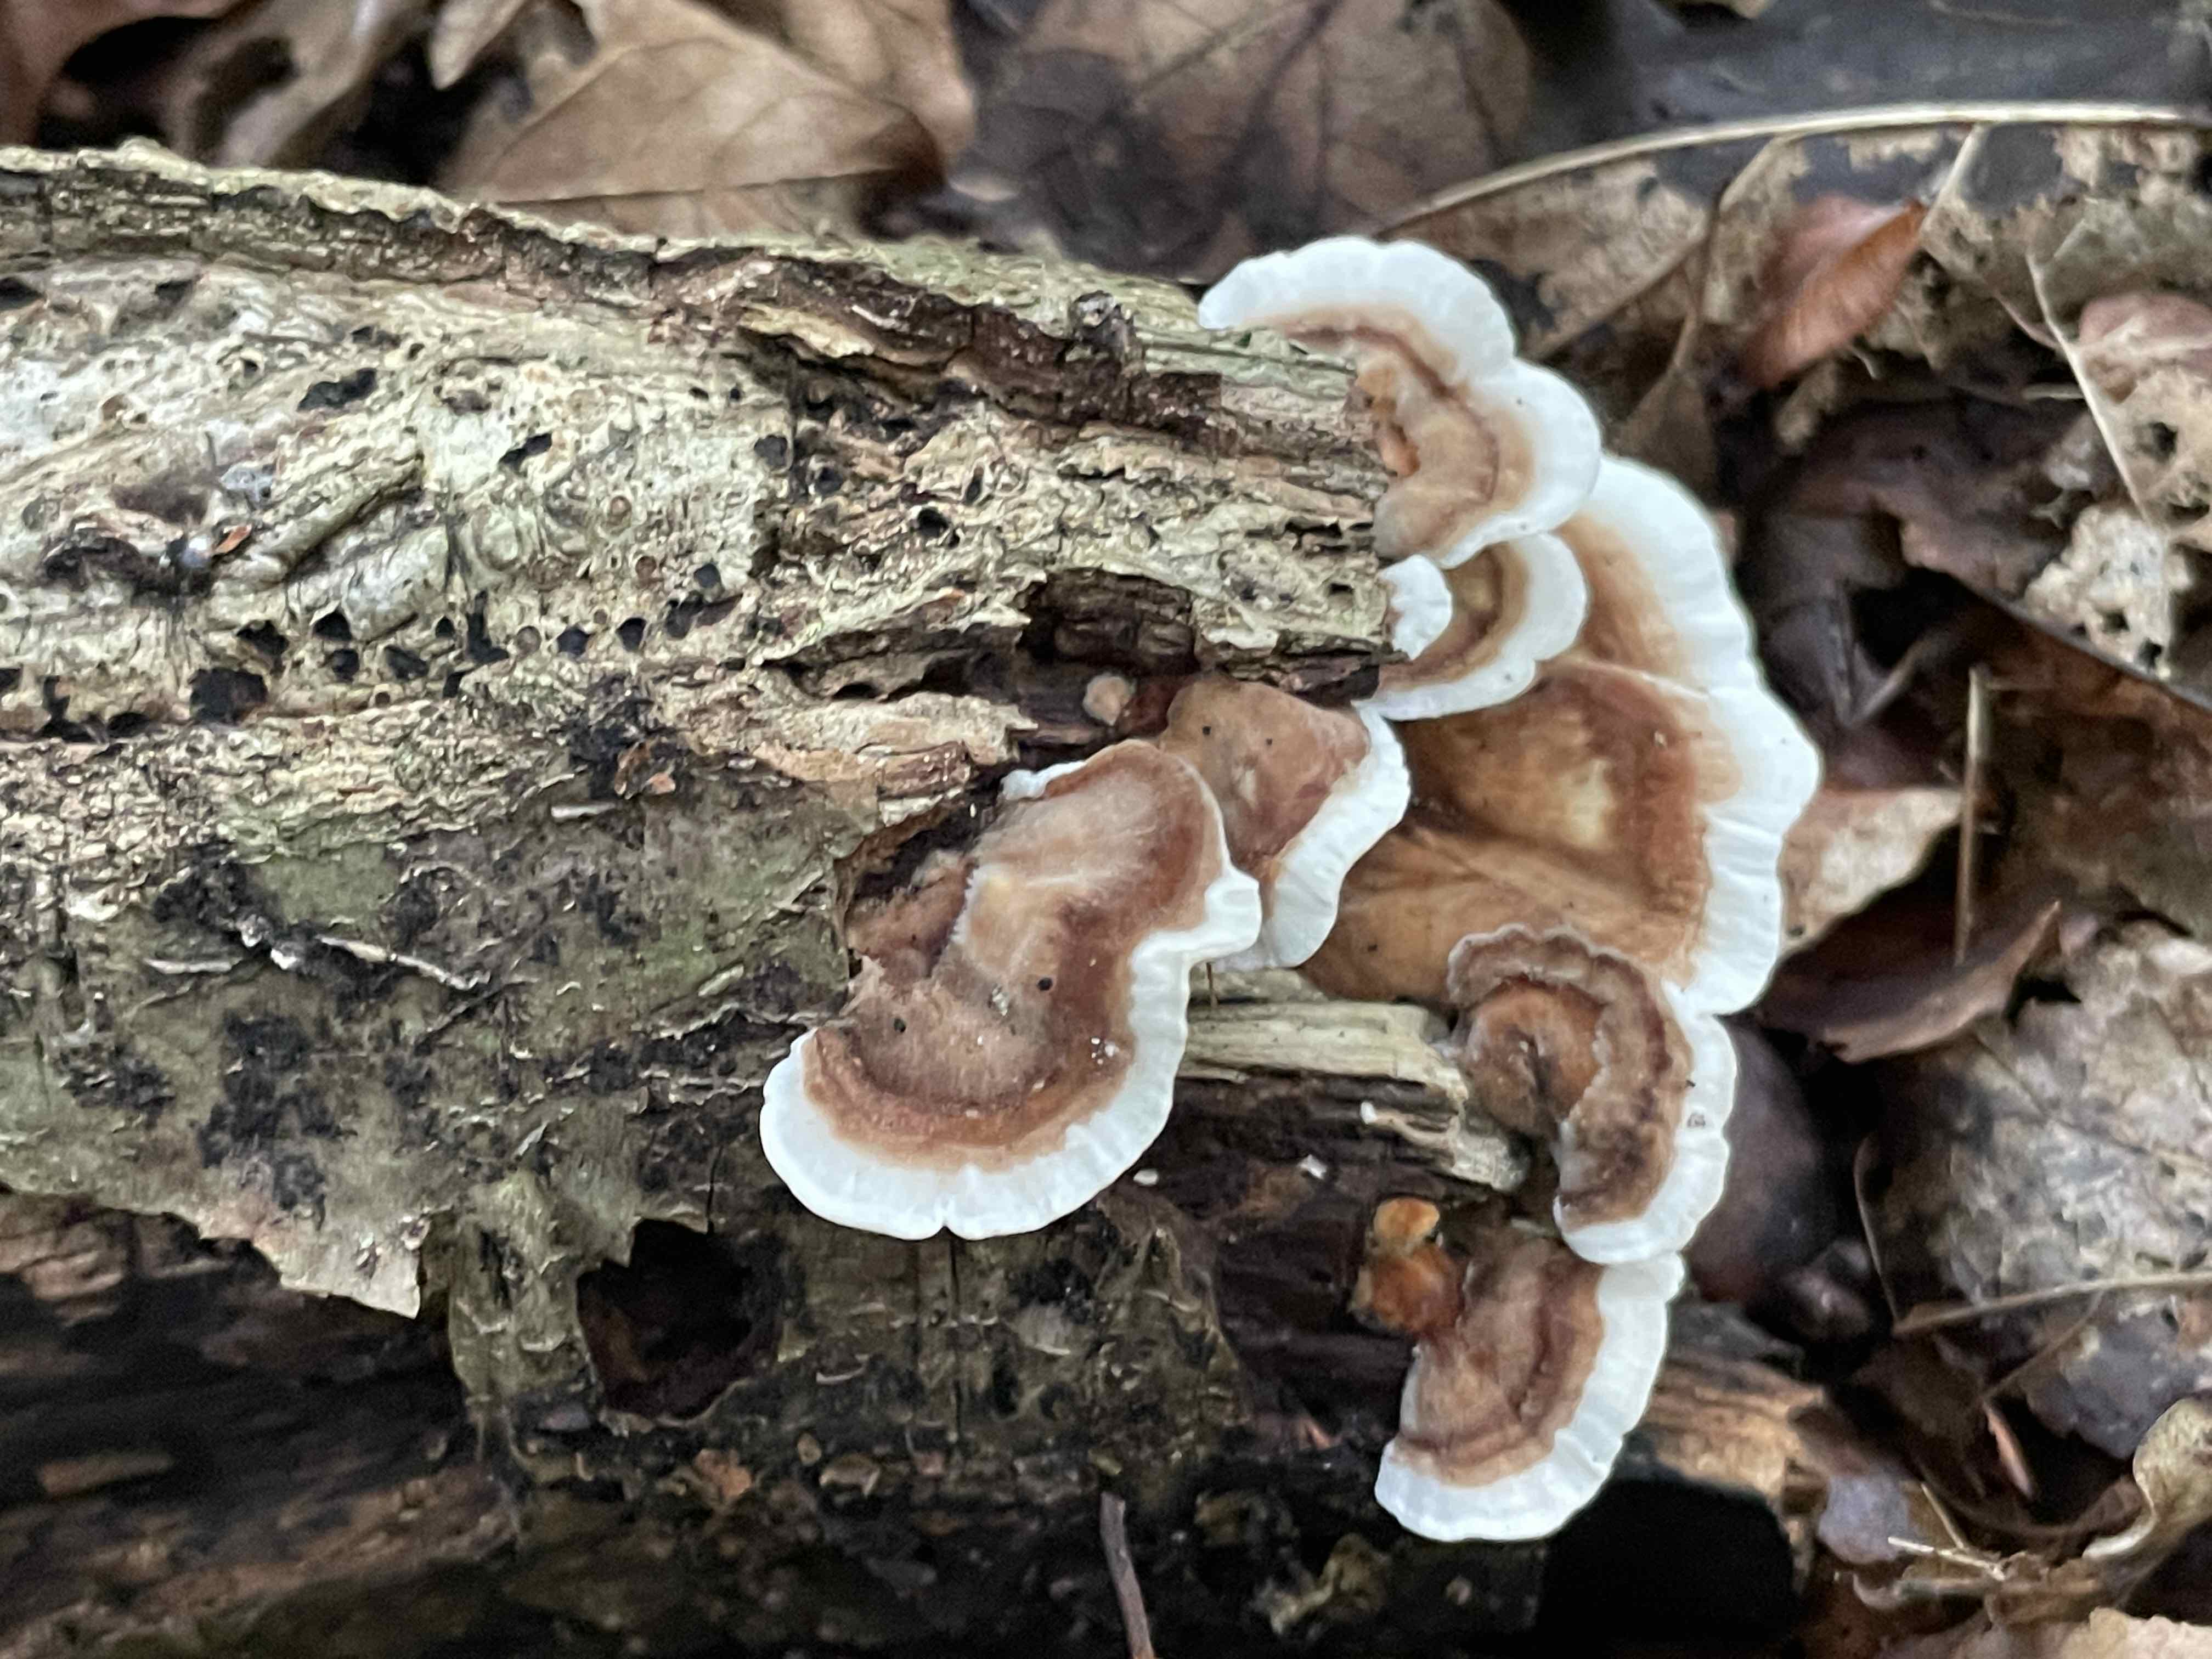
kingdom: Fungi
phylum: Basidiomycota
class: Agaricomycetes
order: Polyporales
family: Polyporaceae
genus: Trametes
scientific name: Trametes versicolor
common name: broget læderporesvamp
